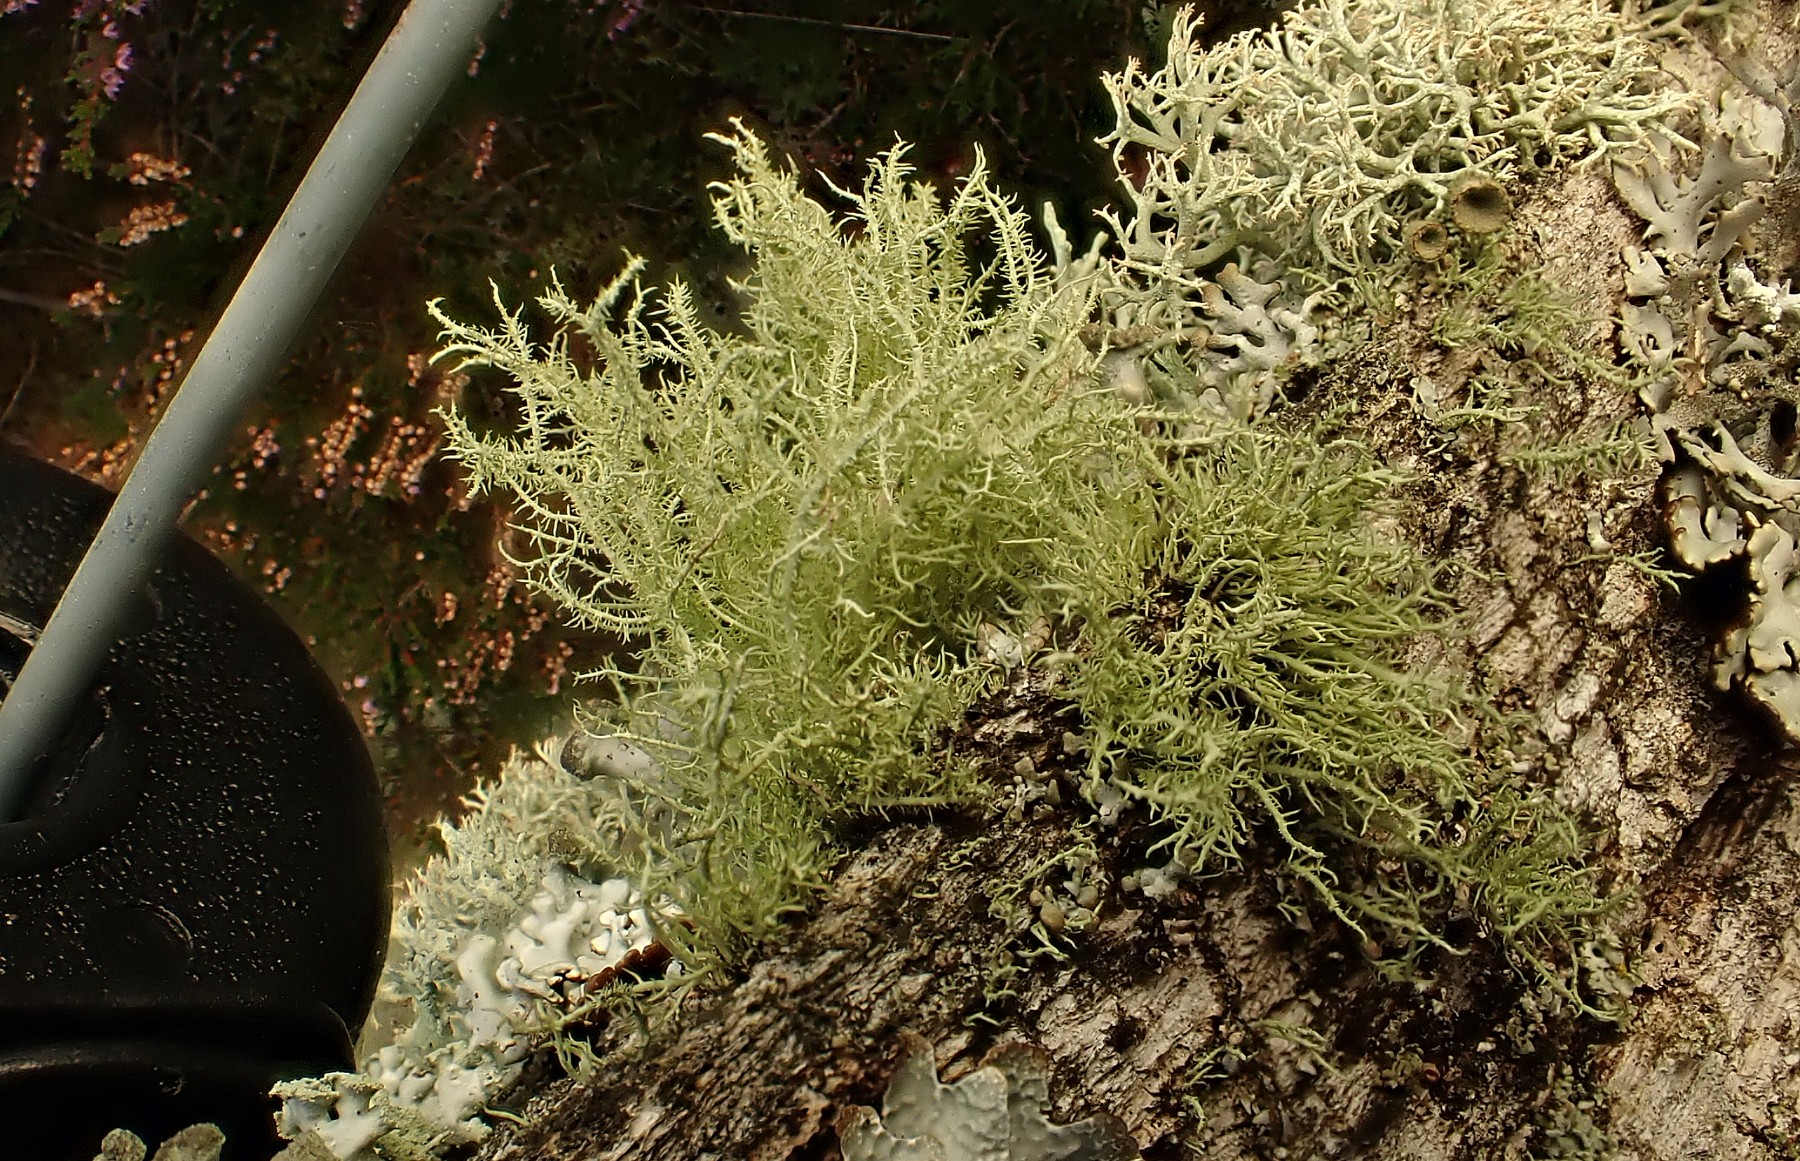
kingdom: Fungi
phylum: Ascomycota
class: Lecanoromycetes
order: Lecanorales
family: Parmeliaceae
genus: Usnea
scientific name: Usnea hirta
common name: liden skæglav
